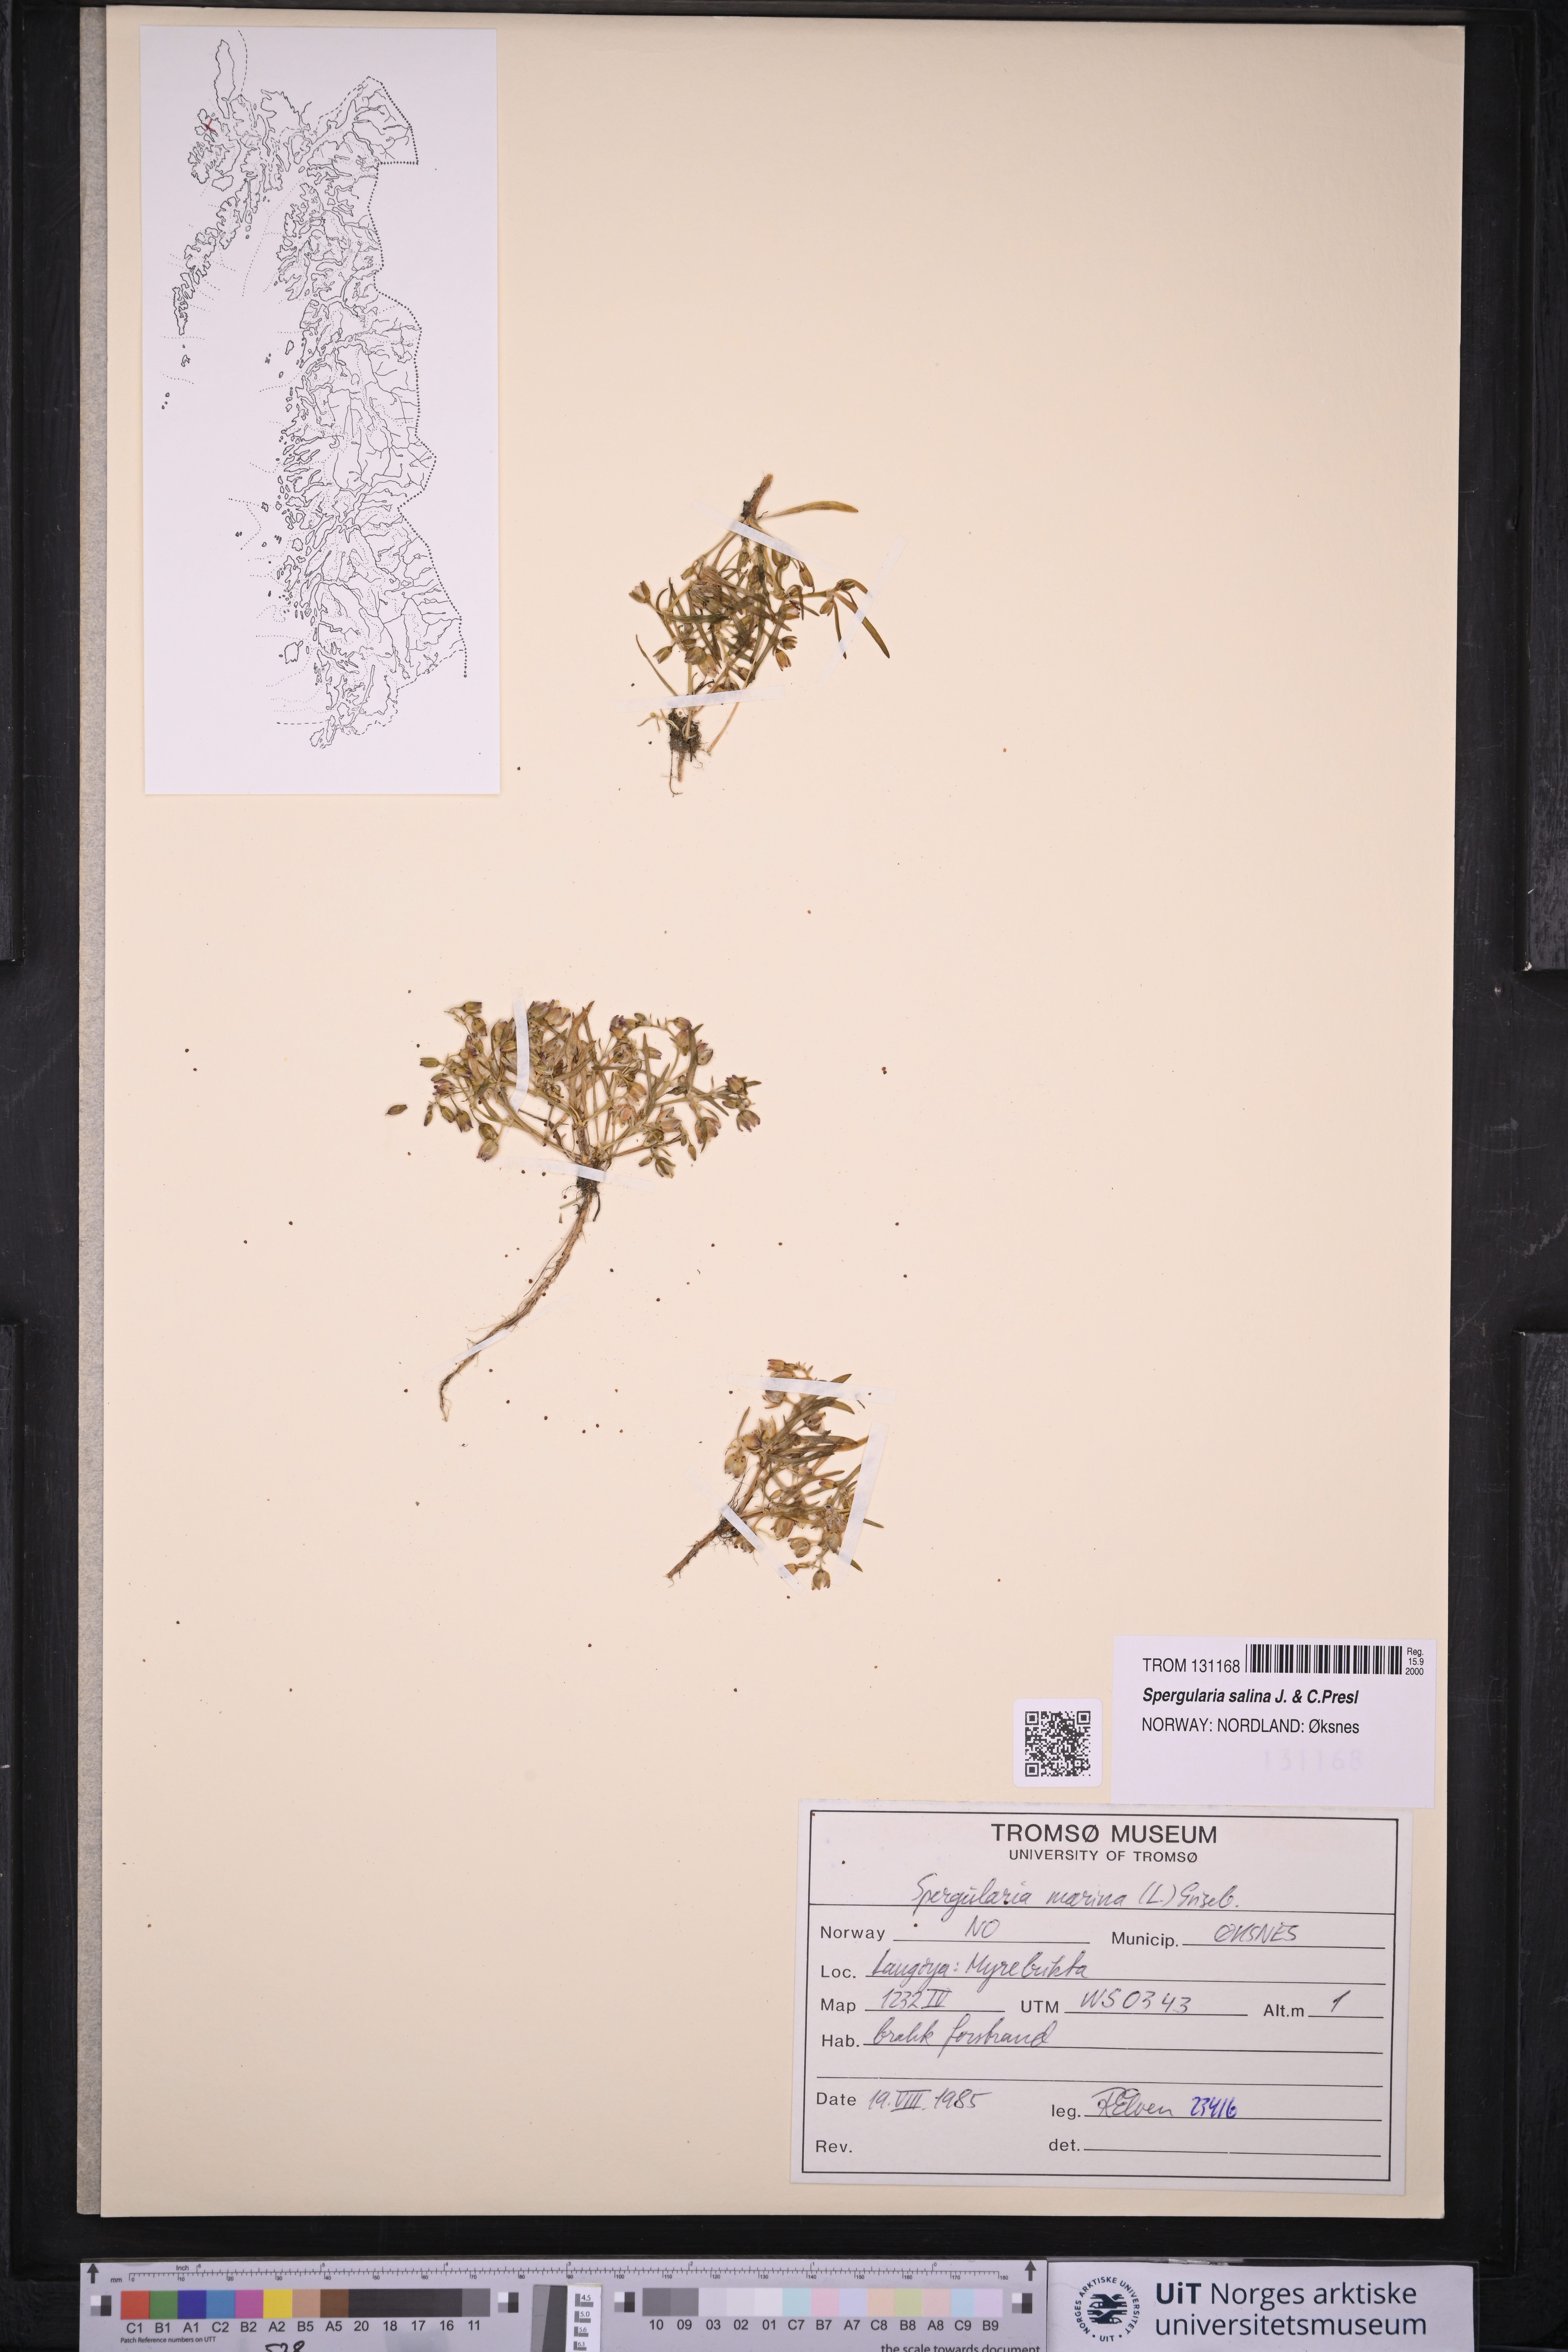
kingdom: Plantae
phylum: Tracheophyta
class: Magnoliopsida
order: Caryophyllales
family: Caryophyllaceae
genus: Spergularia
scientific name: Spergularia marina
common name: Lesser sea-spurrey
